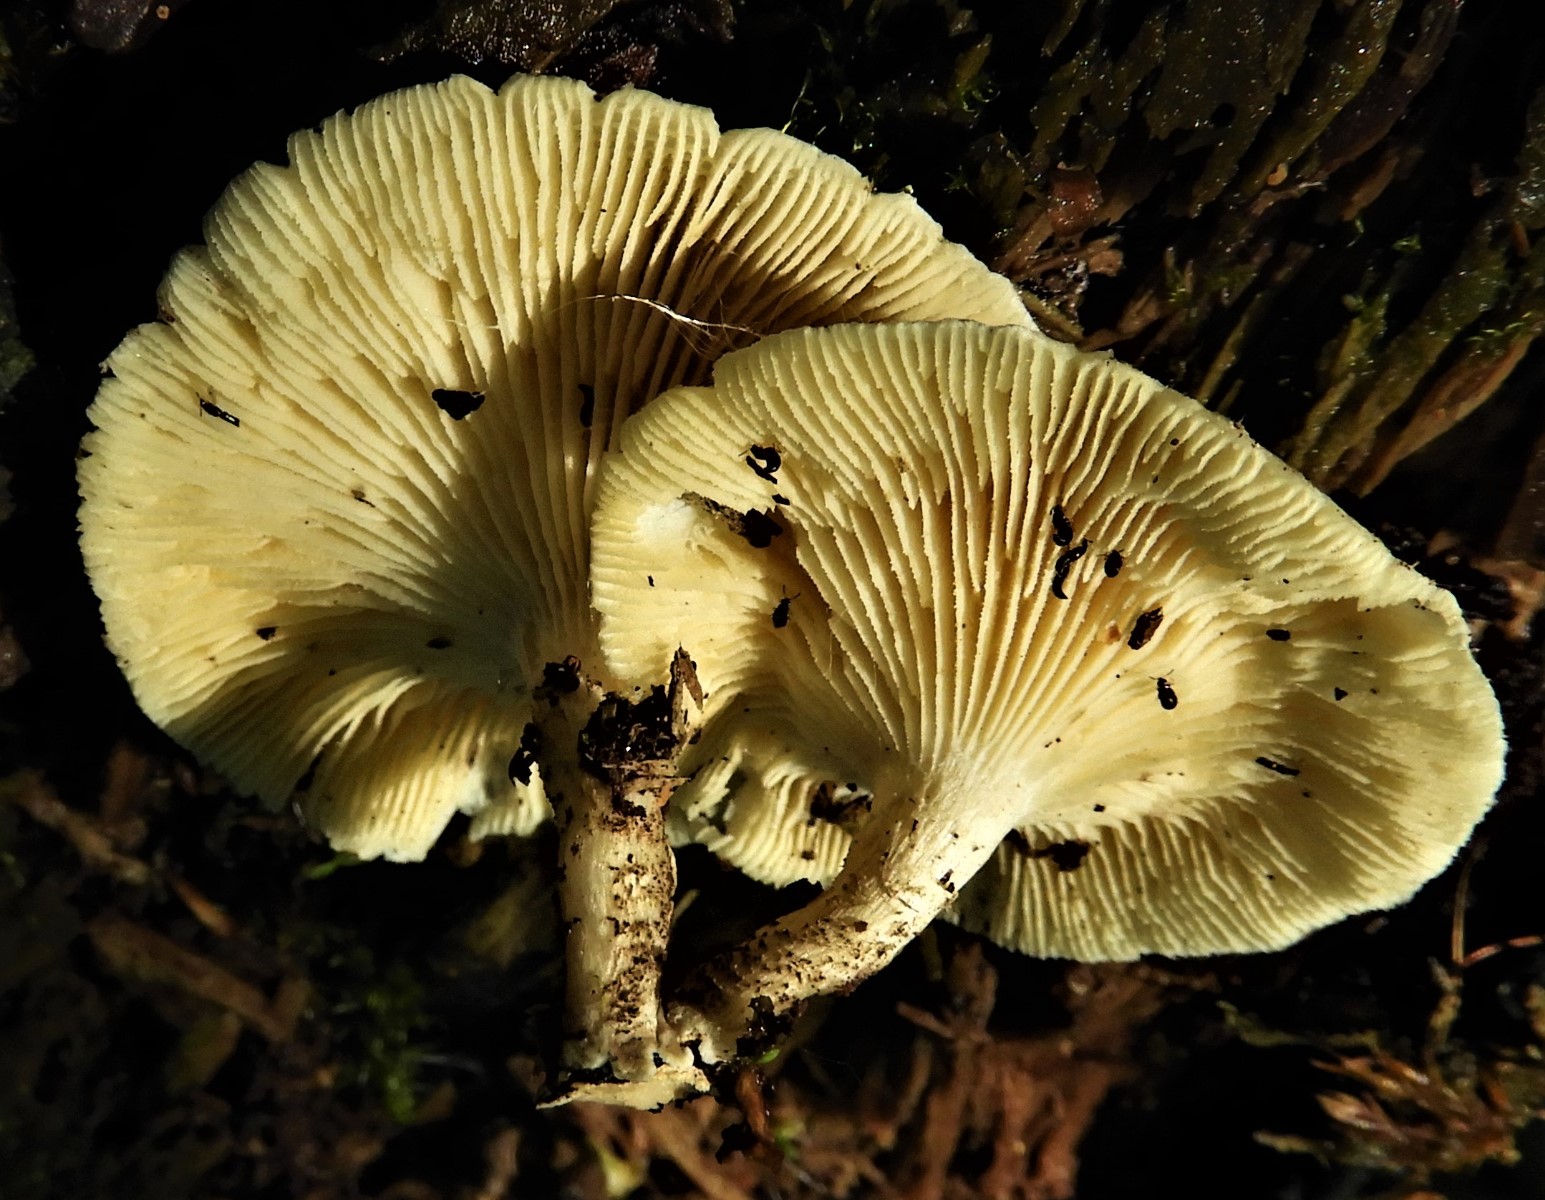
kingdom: Fungi
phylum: Basidiomycota
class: Agaricomycetes
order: Polyporales
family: Polyporaceae
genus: Lentinus
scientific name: Lentinus tigrinus
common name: tigerhat
